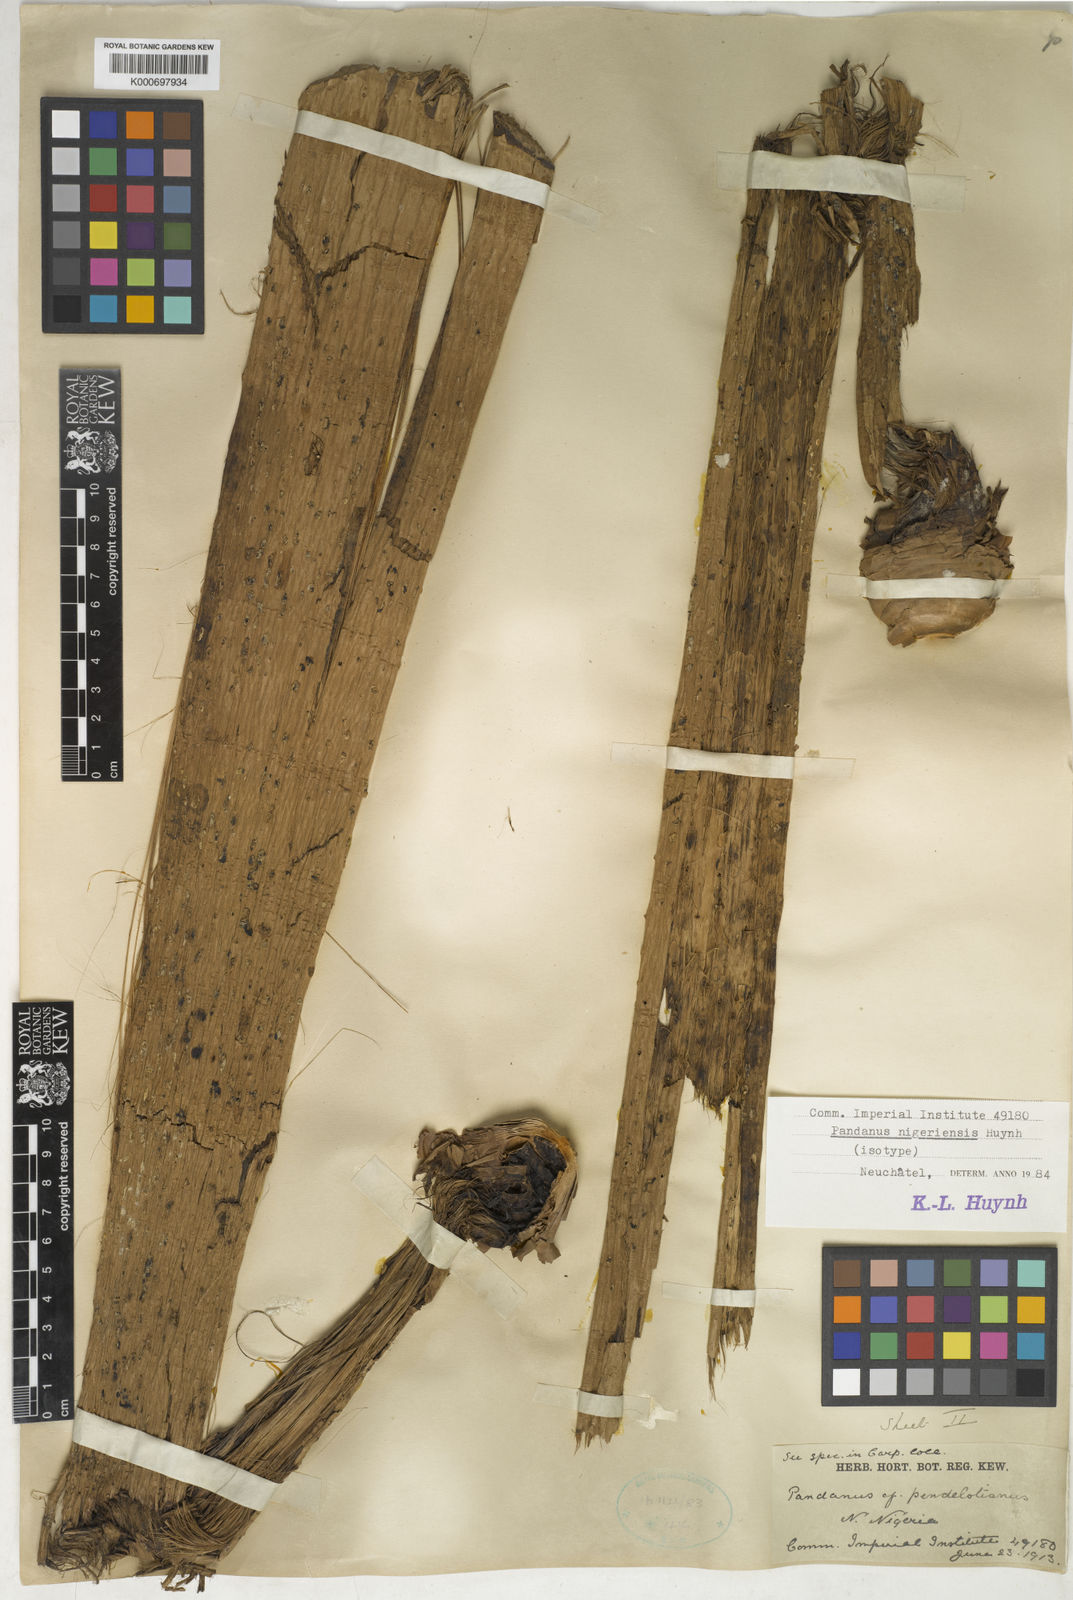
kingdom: Plantae
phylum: Tracheophyta
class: Liliopsida
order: Pandanales
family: Pandanaceae
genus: Pandanus
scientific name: Pandanus
